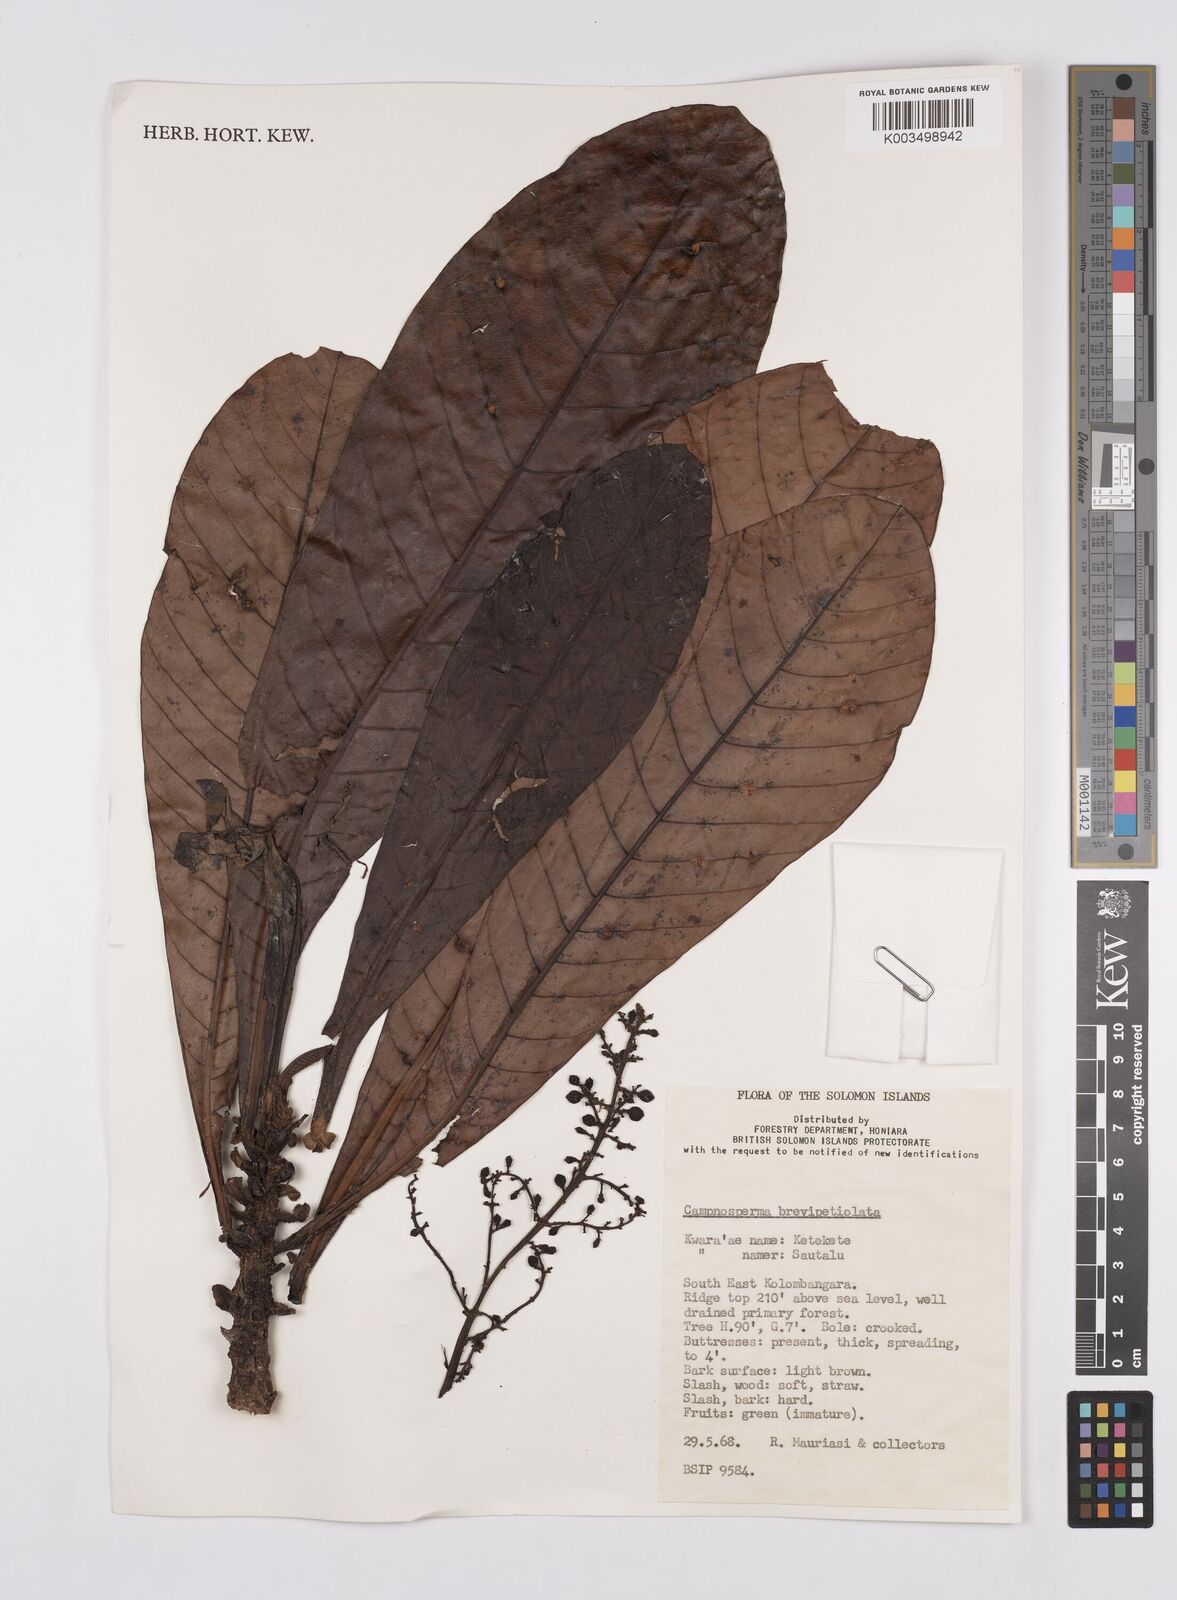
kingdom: Plantae
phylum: Tracheophyta
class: Magnoliopsida
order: Sapindales
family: Anacardiaceae
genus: Campnosperma
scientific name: Campnosperma brevipetiolatum
